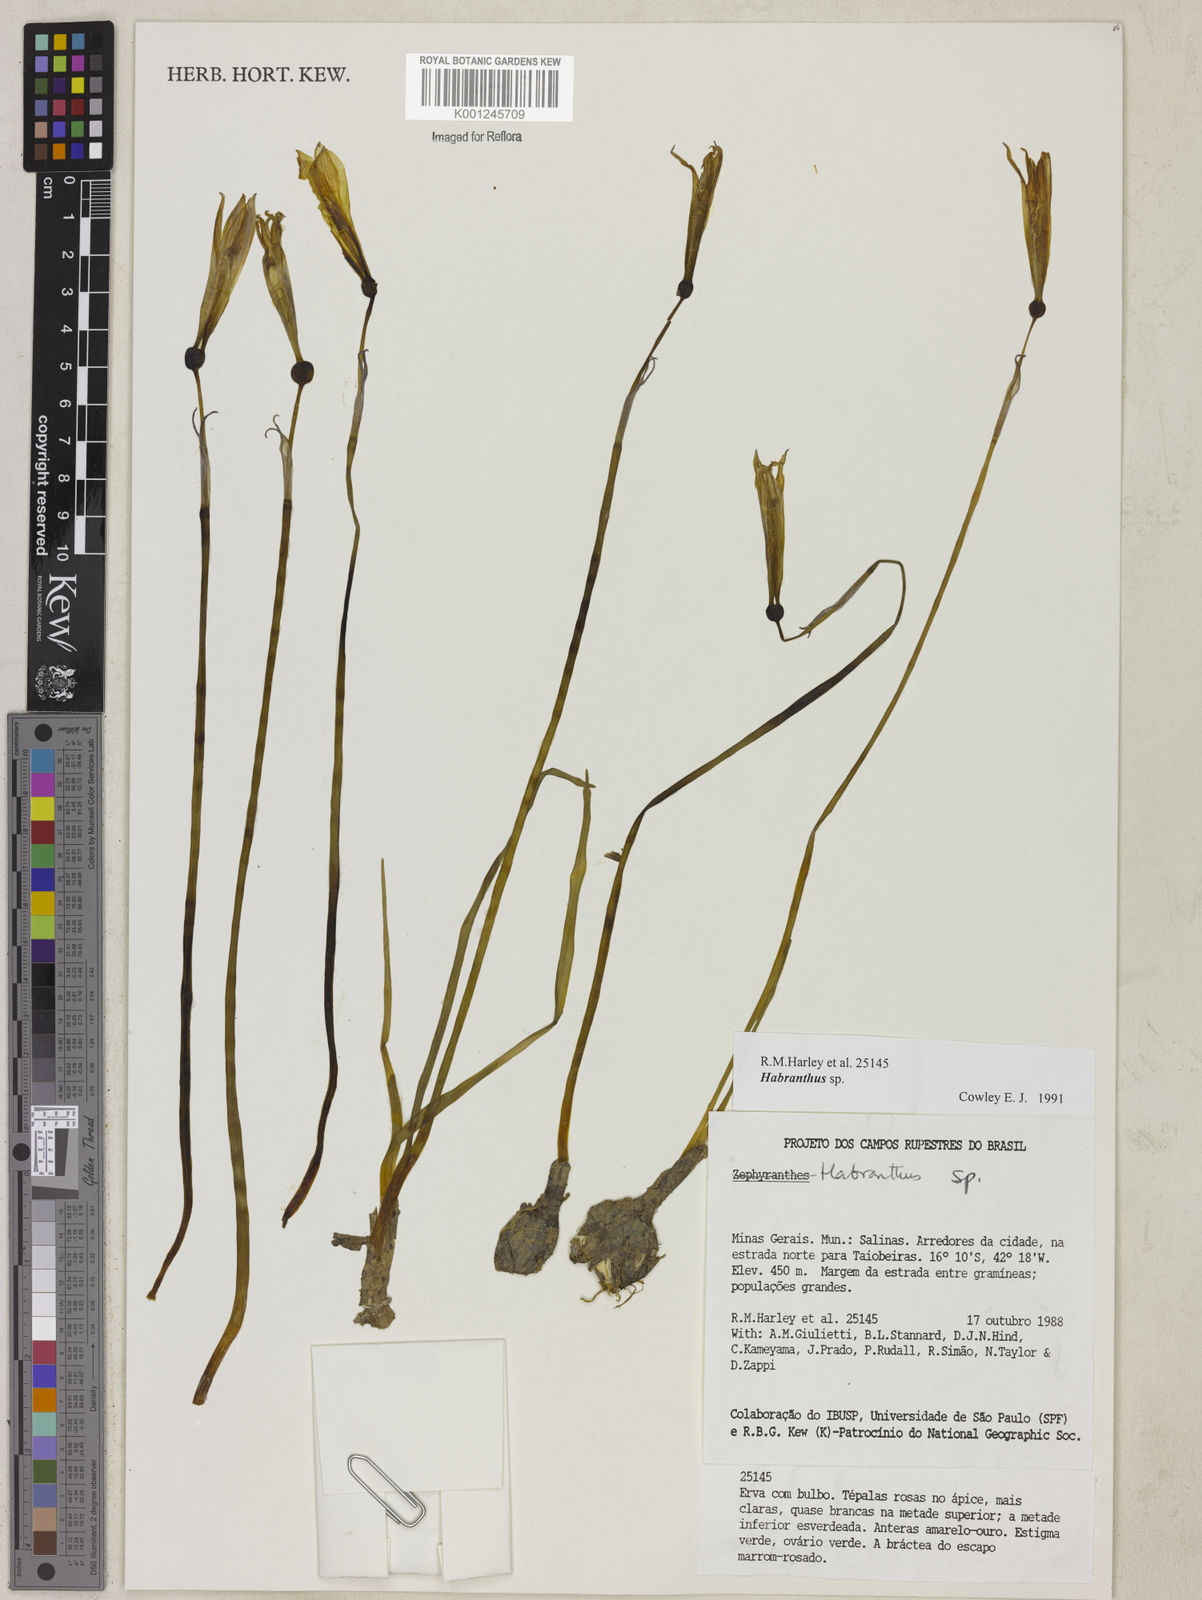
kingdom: Plantae
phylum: Tracheophyta
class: Liliopsida
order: Asparagales
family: Amaryllidaceae
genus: Zephyranthes
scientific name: Zephyranthes
